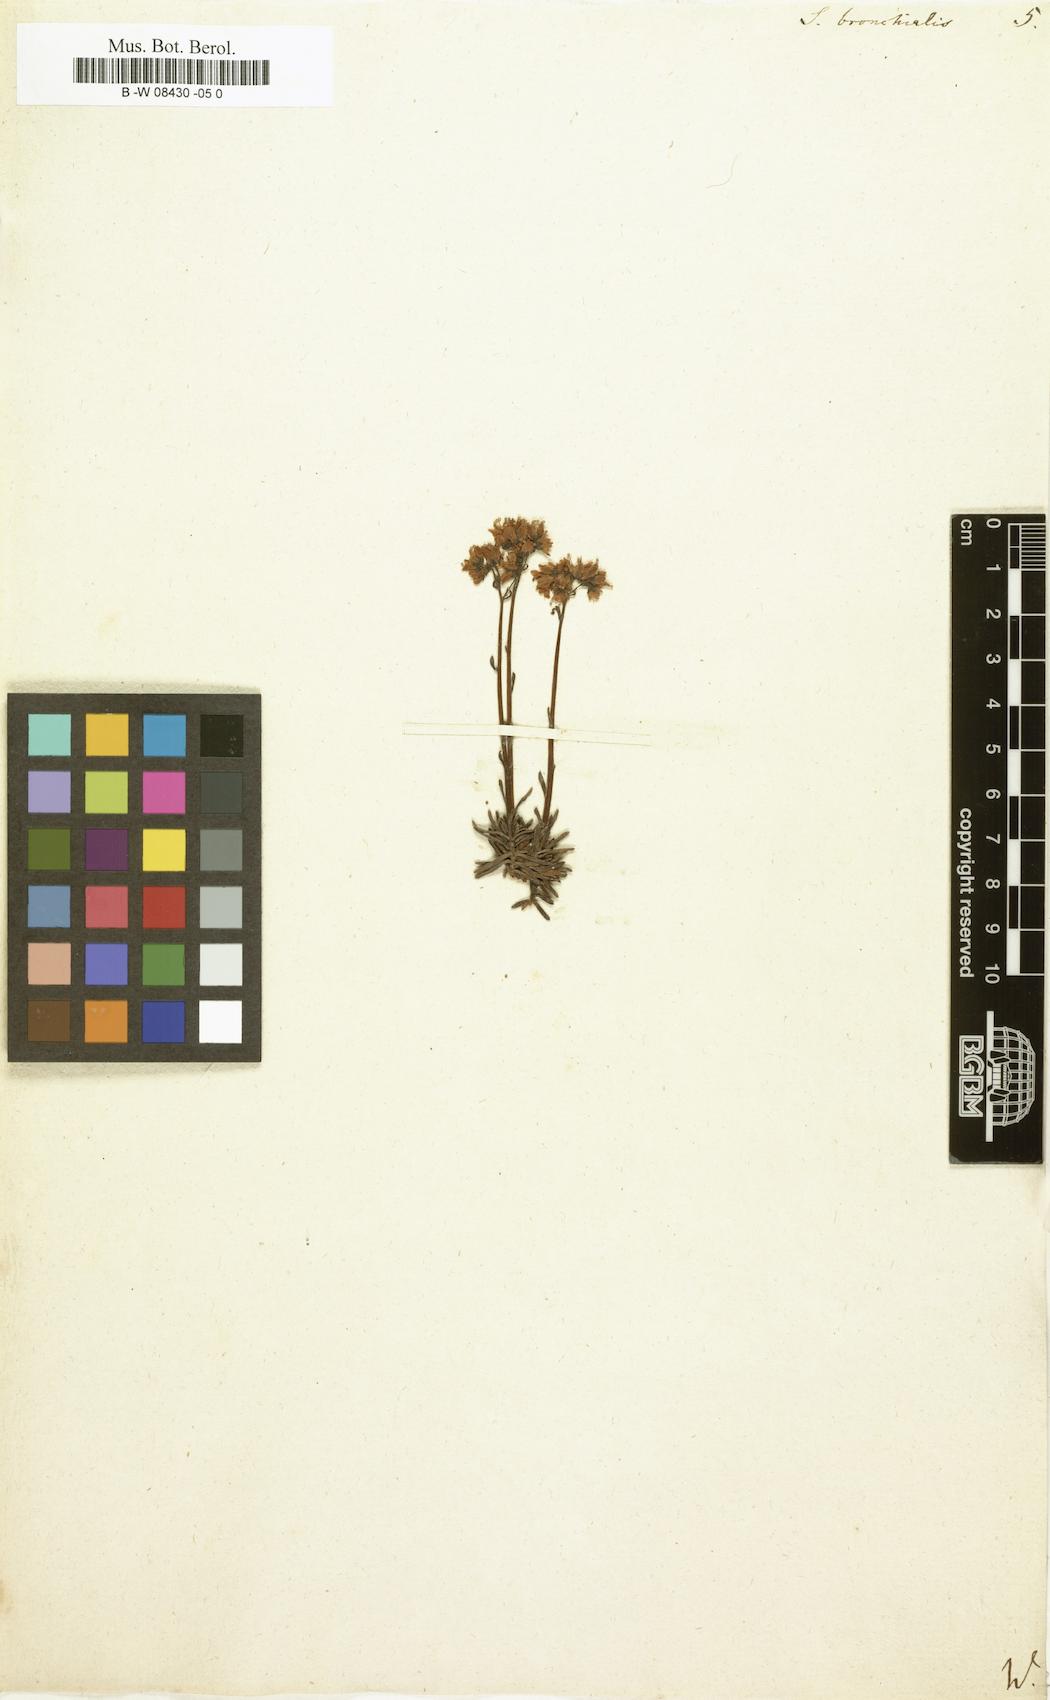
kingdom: Plantae
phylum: Tracheophyta
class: Magnoliopsida
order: Saxifragales
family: Saxifragaceae
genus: Saxifraga
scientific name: Saxifraga bronchialis
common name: Matted saxifrage
